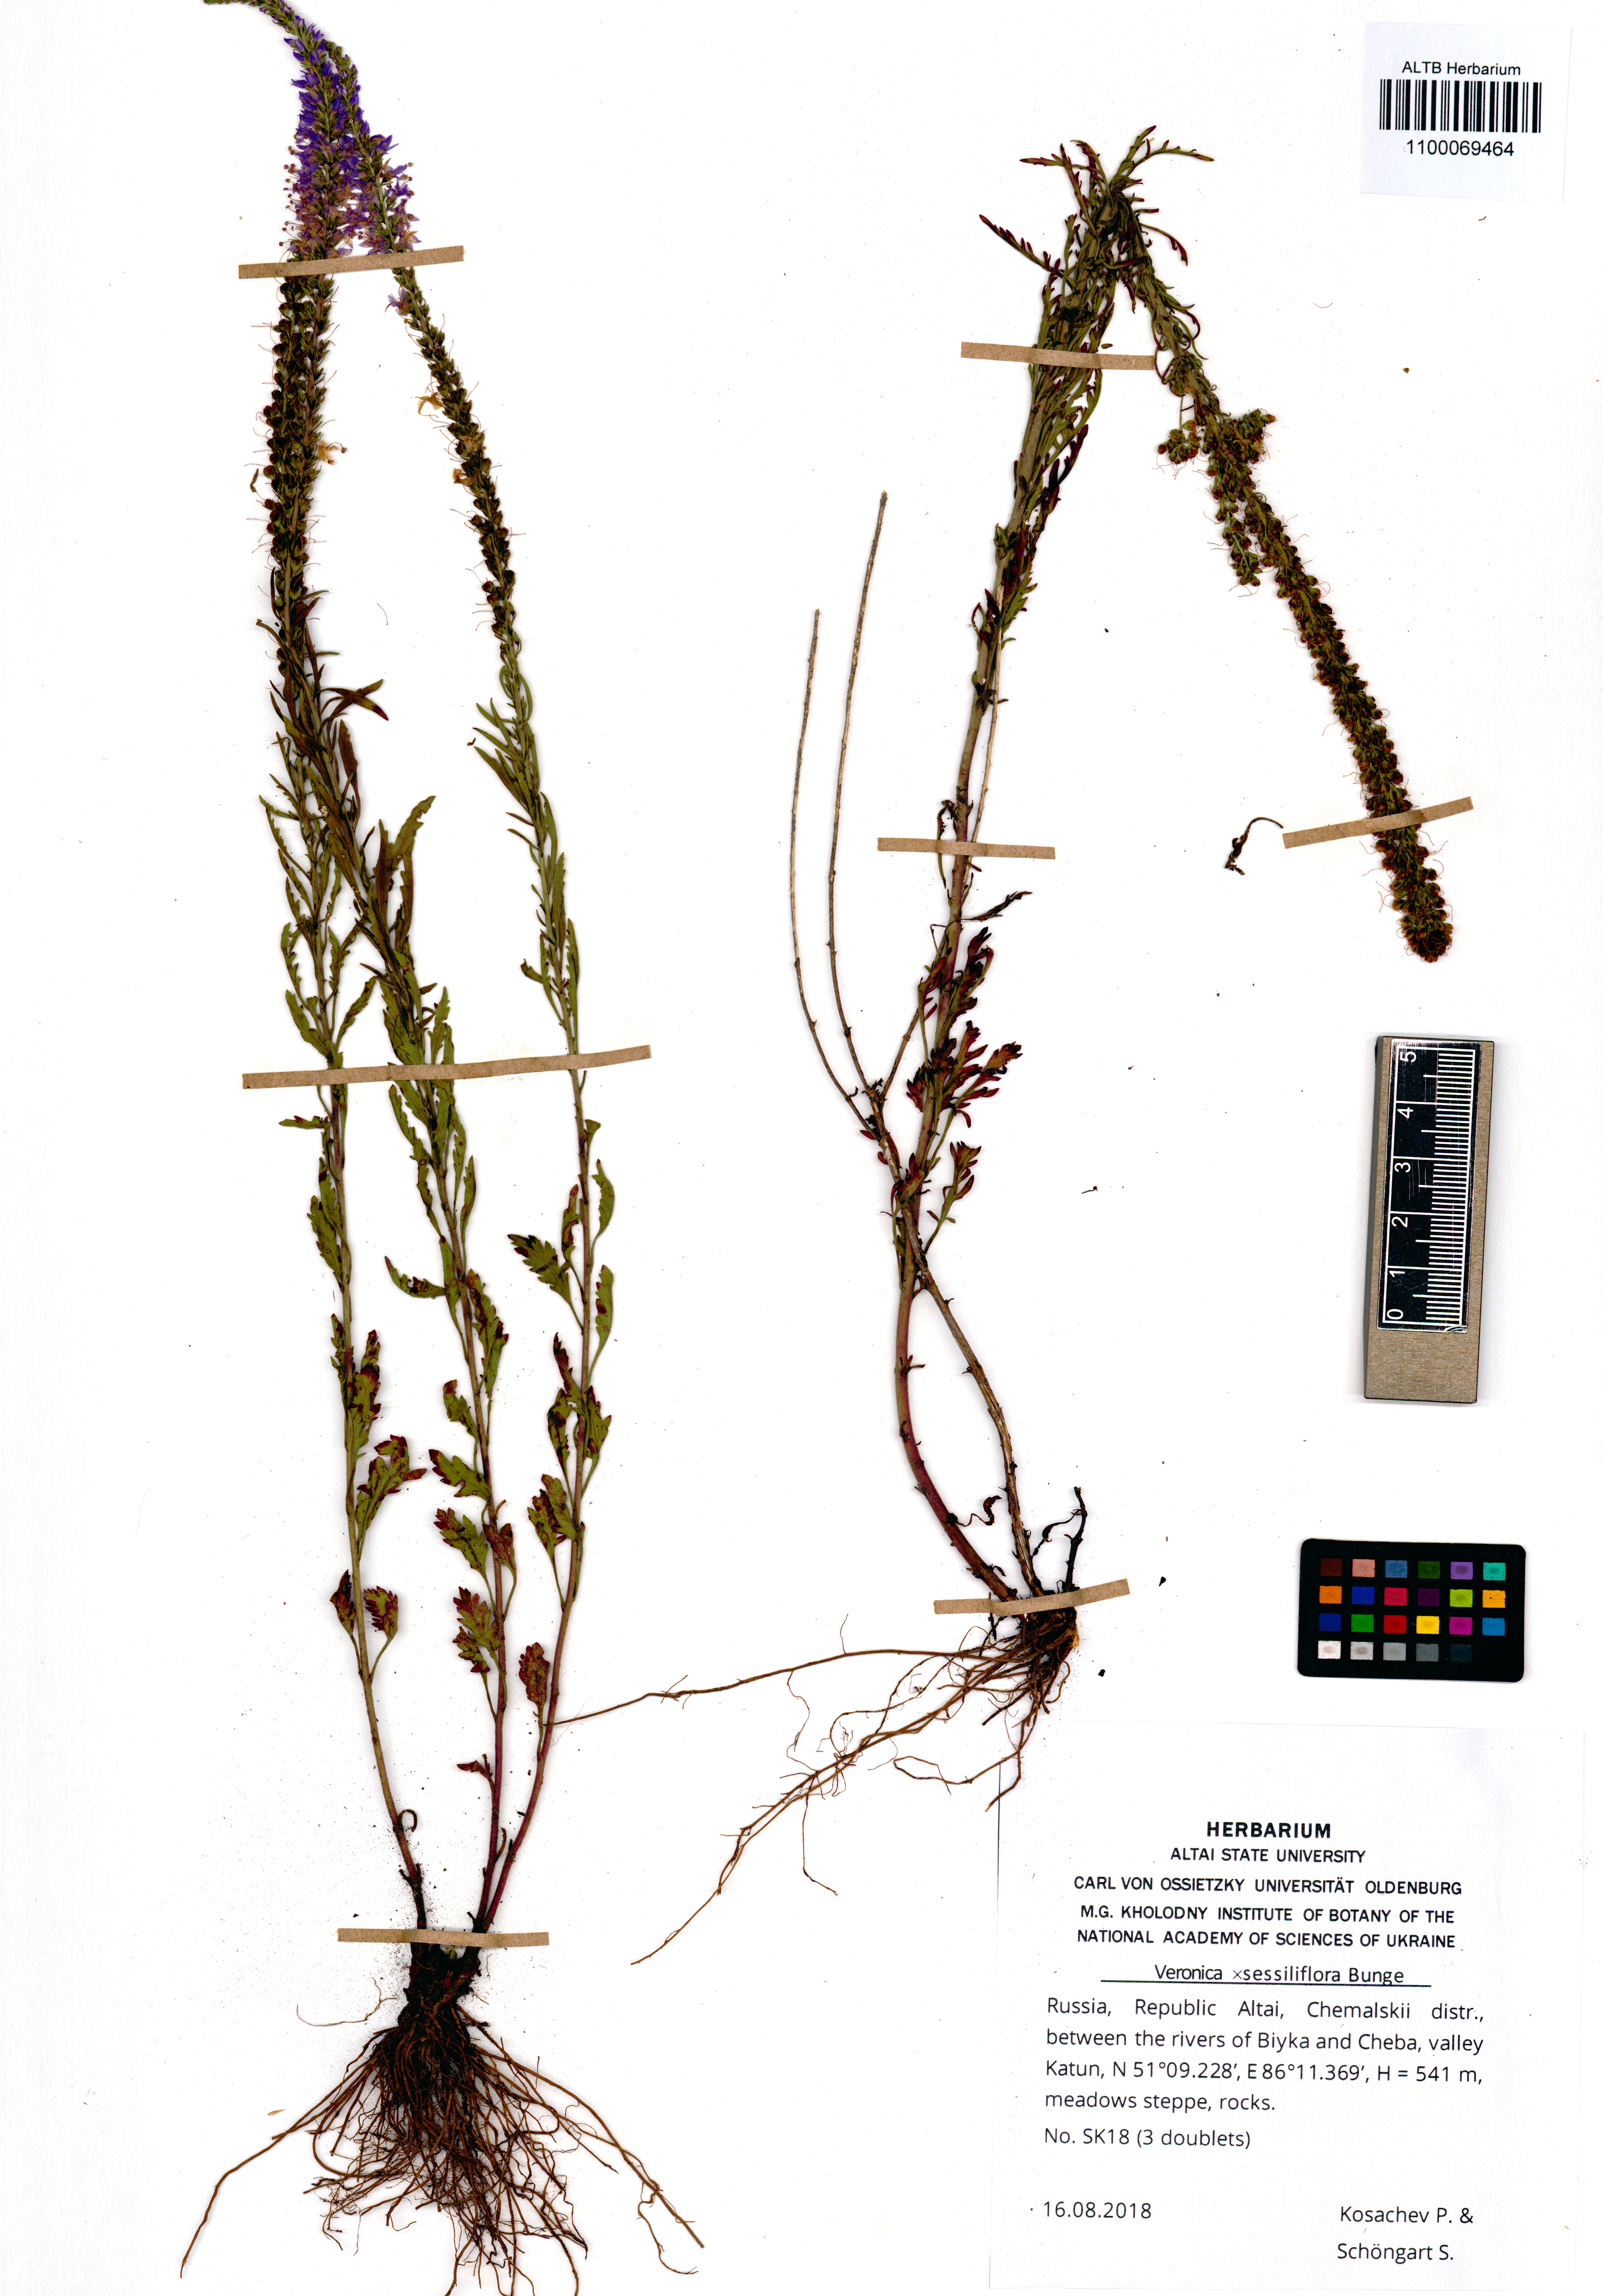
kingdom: Plantae
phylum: Tracheophyta
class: Magnoliopsida
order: Lamiales
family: Plantaginaceae
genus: Veronica
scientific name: Veronica sessiliflora
